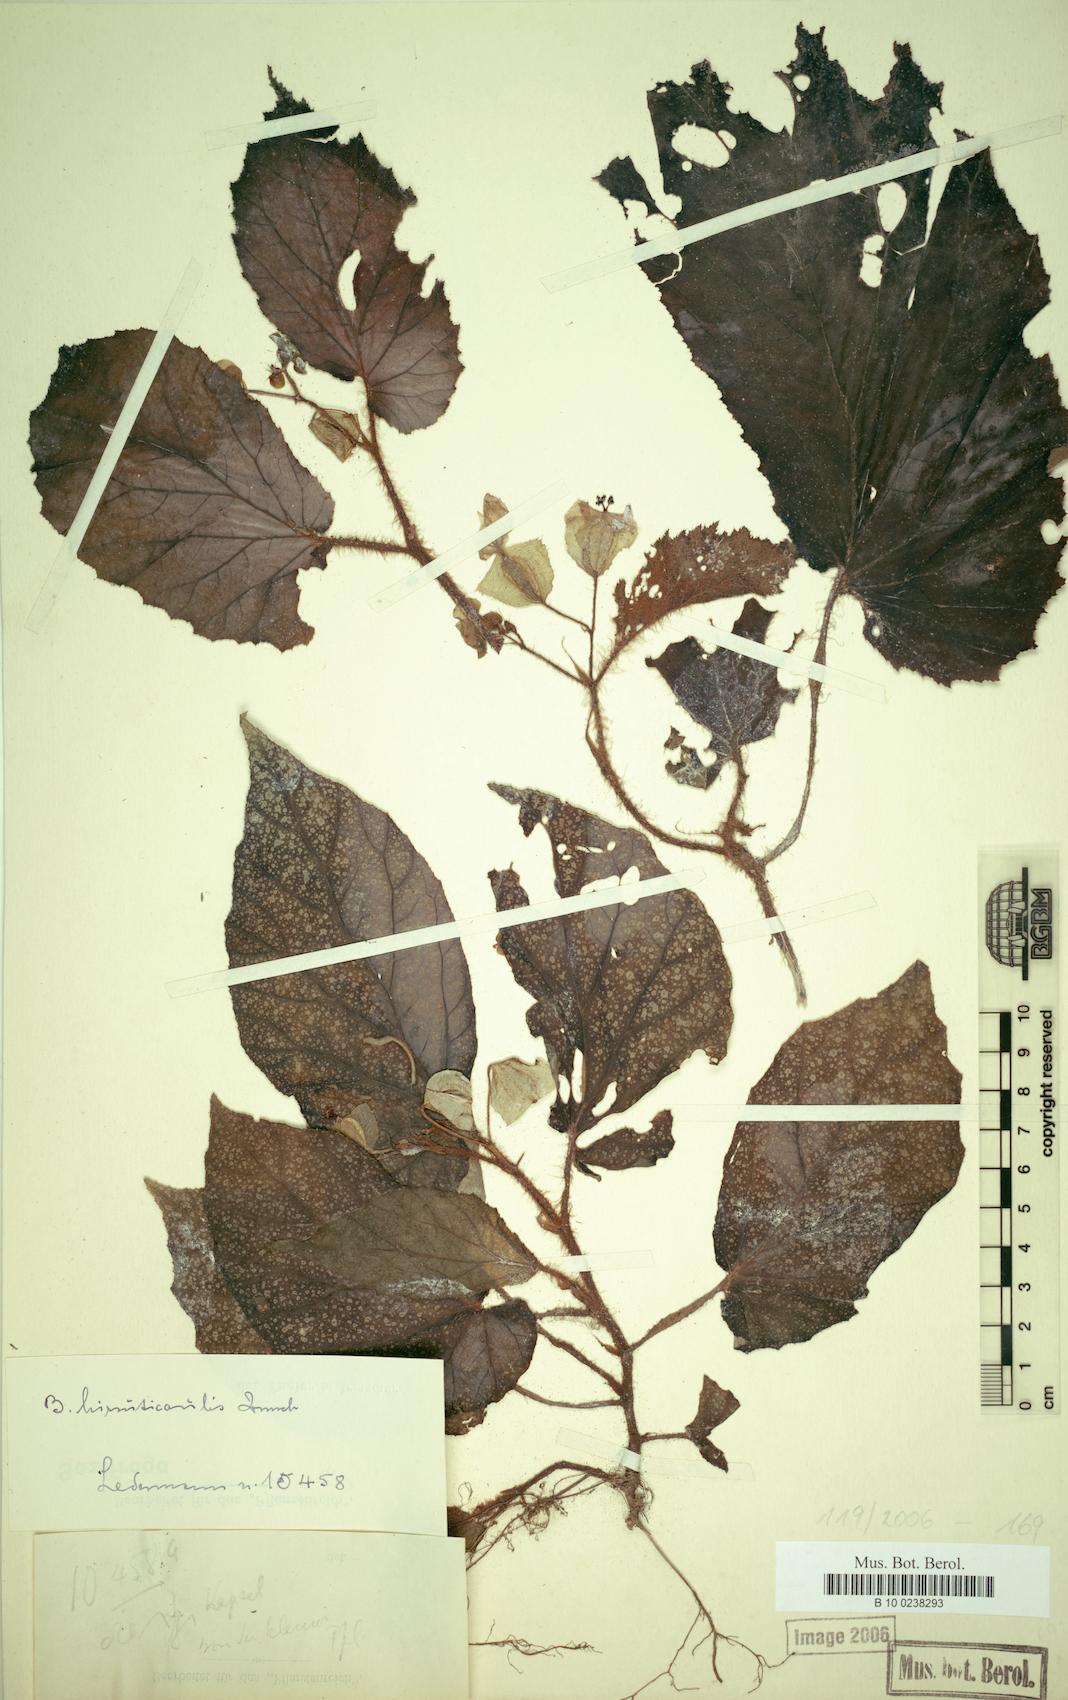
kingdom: Plantae
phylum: Tracheophyta
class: Magnoliopsida
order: Cucurbitales
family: Begoniaceae
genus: Begonia
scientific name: Begonia hirsuticaulis
